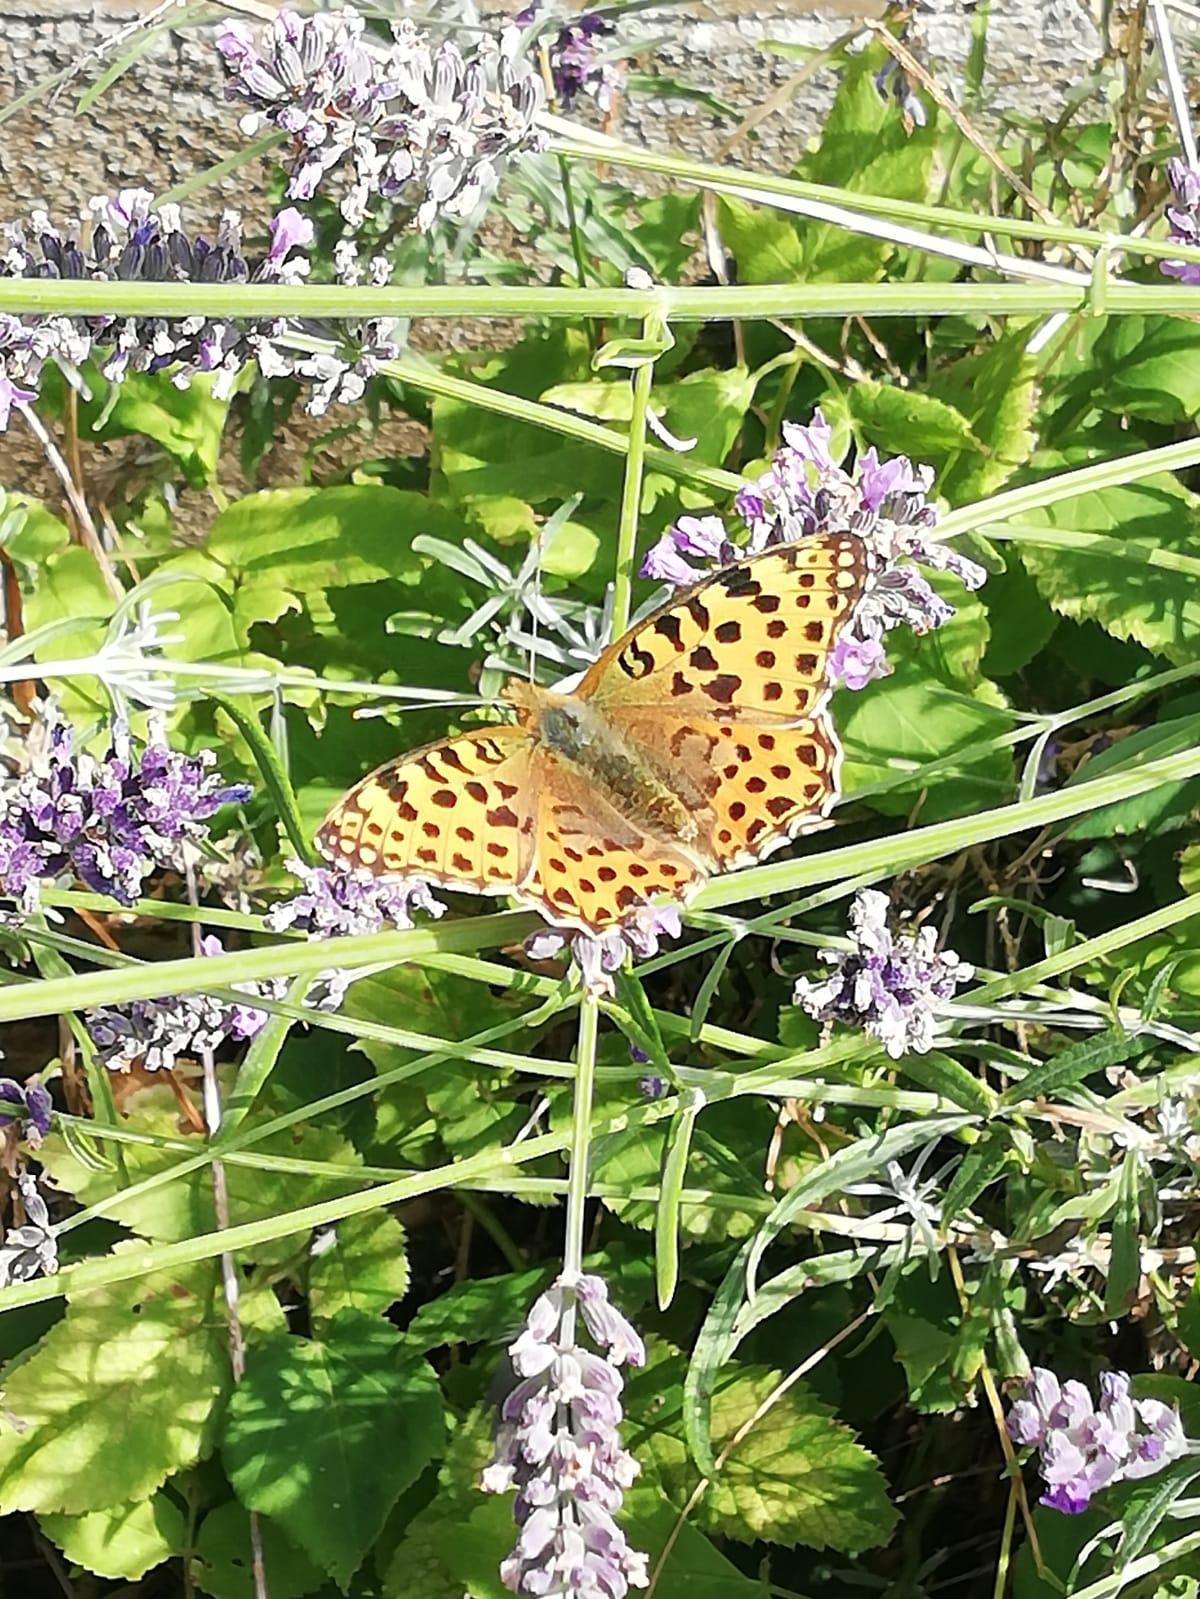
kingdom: Animalia
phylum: Arthropoda
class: Insecta
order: Lepidoptera
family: Nymphalidae
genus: Issoria
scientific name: Issoria lathonia
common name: Storplettet perlemorsommerfugl
